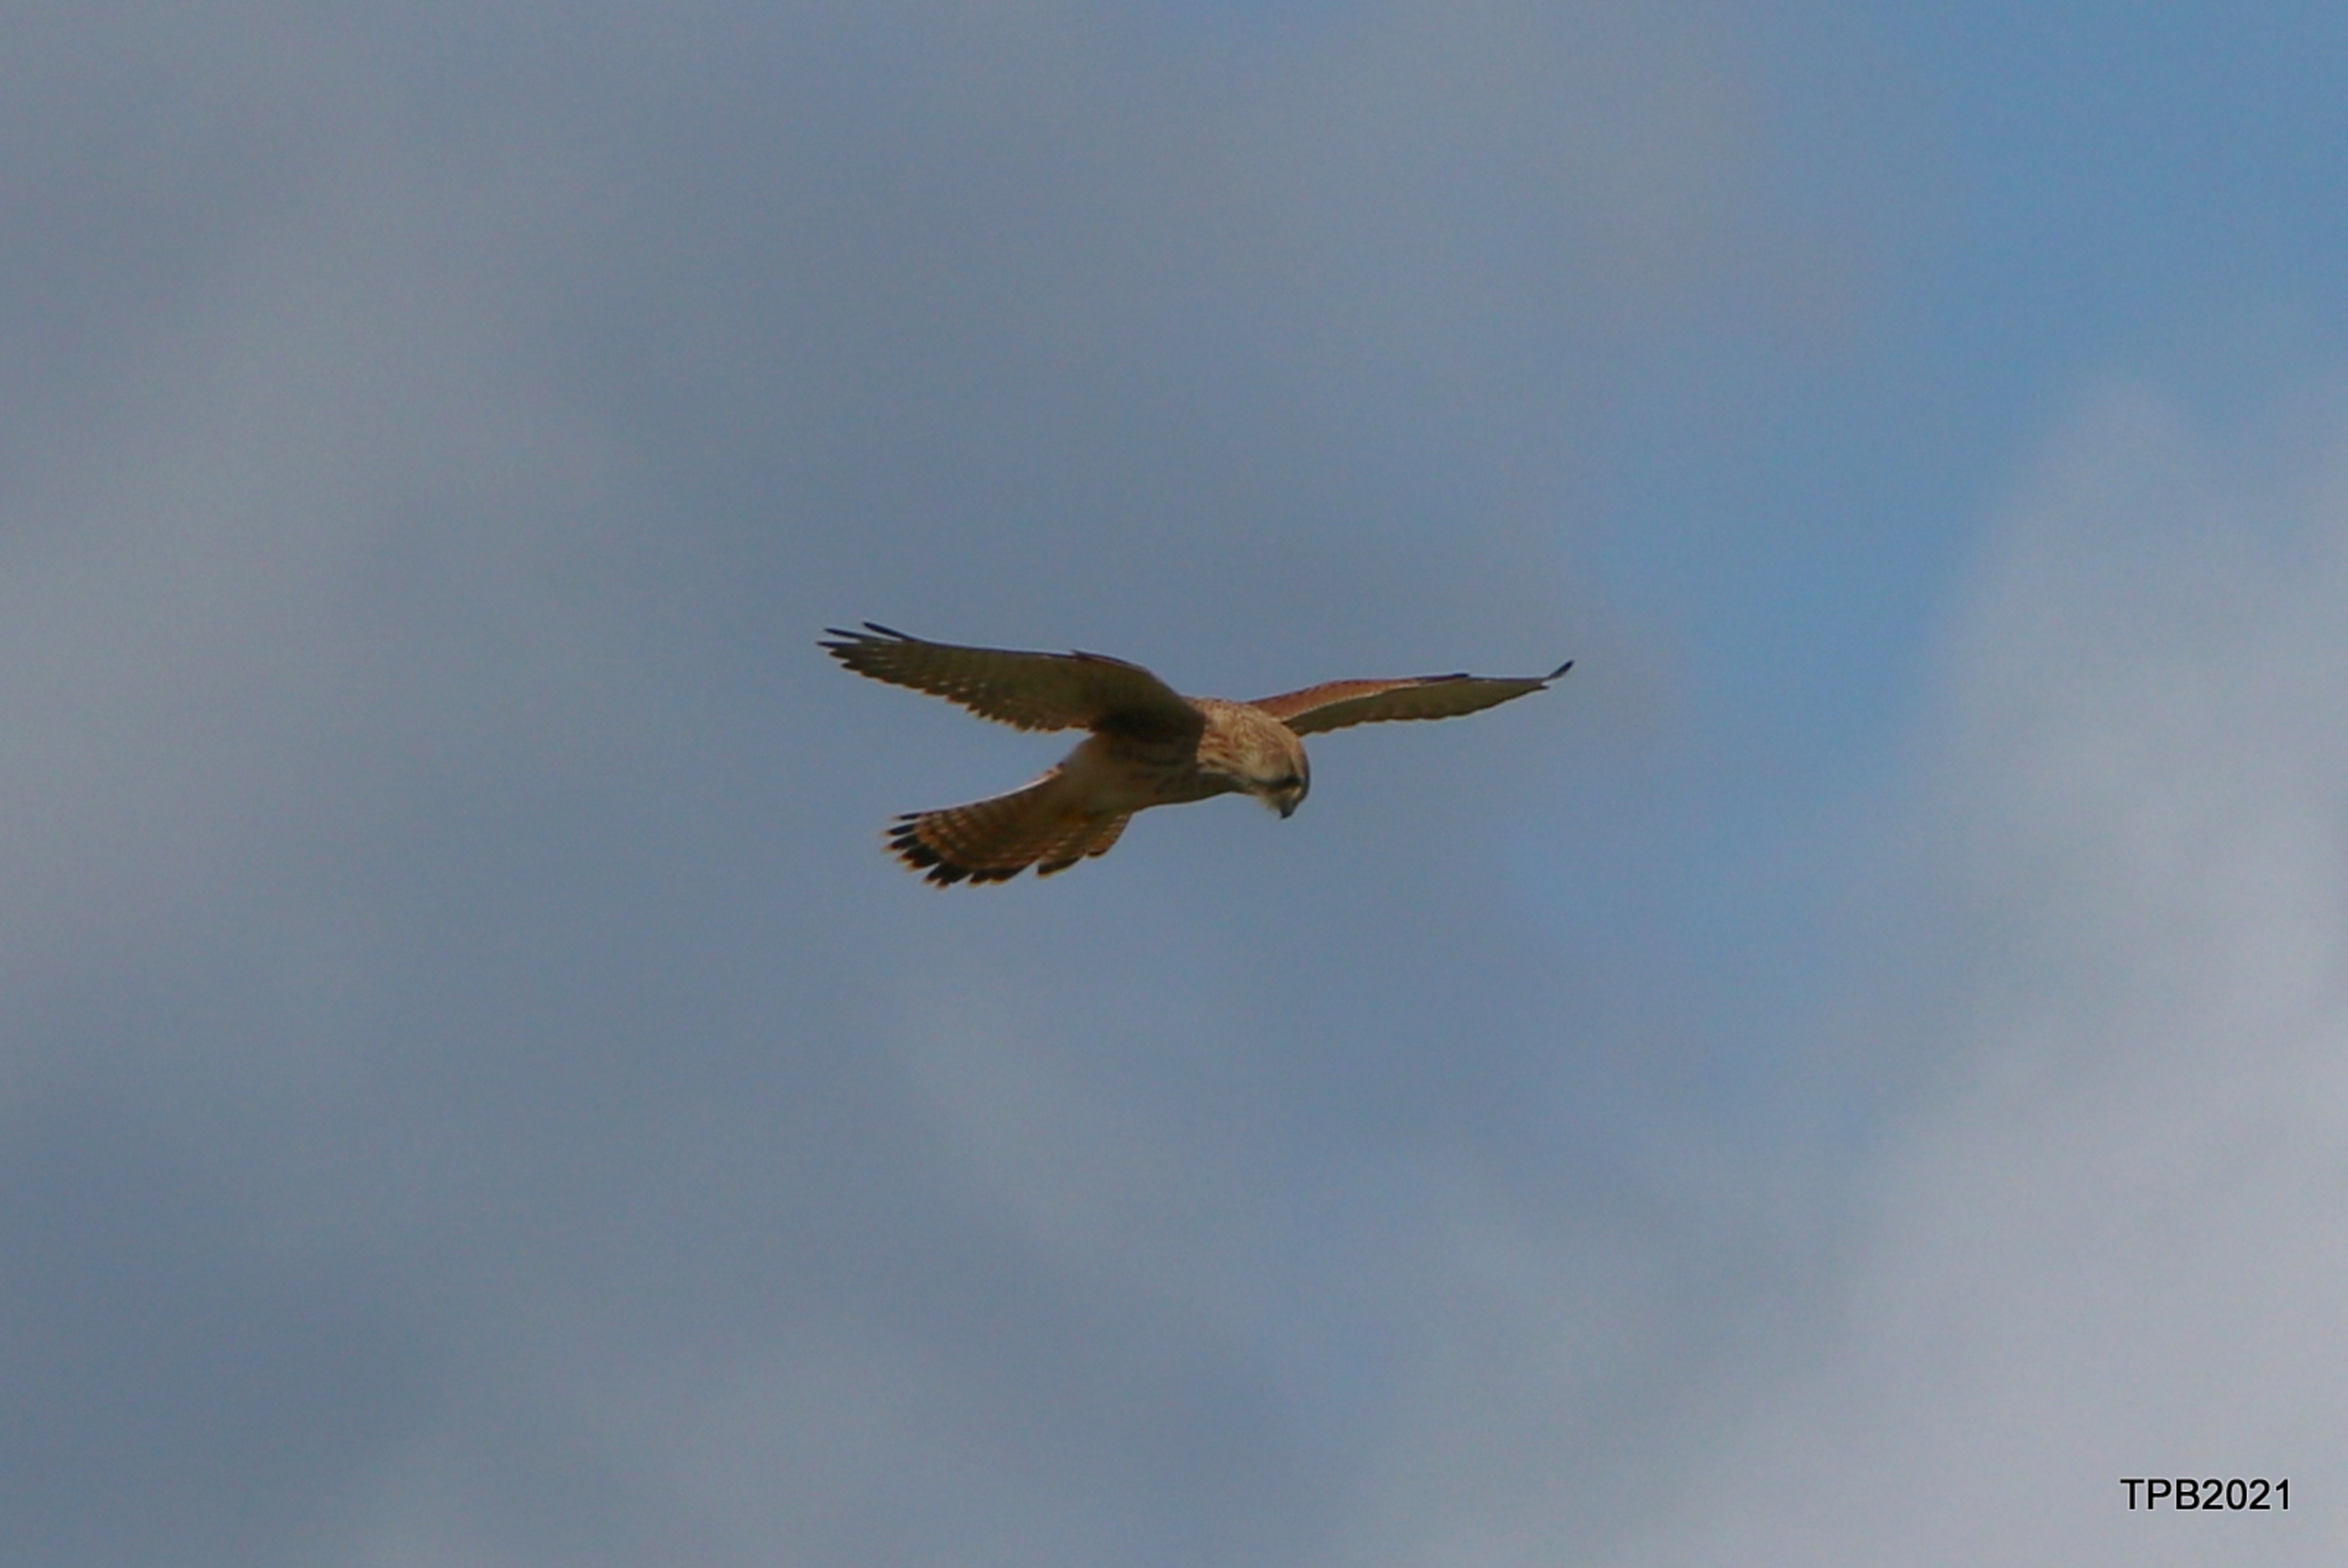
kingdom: Animalia
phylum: Chordata
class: Aves
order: Falconiformes
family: Falconidae
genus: Falco
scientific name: Falco tinnunculus
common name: Tårnfalk
